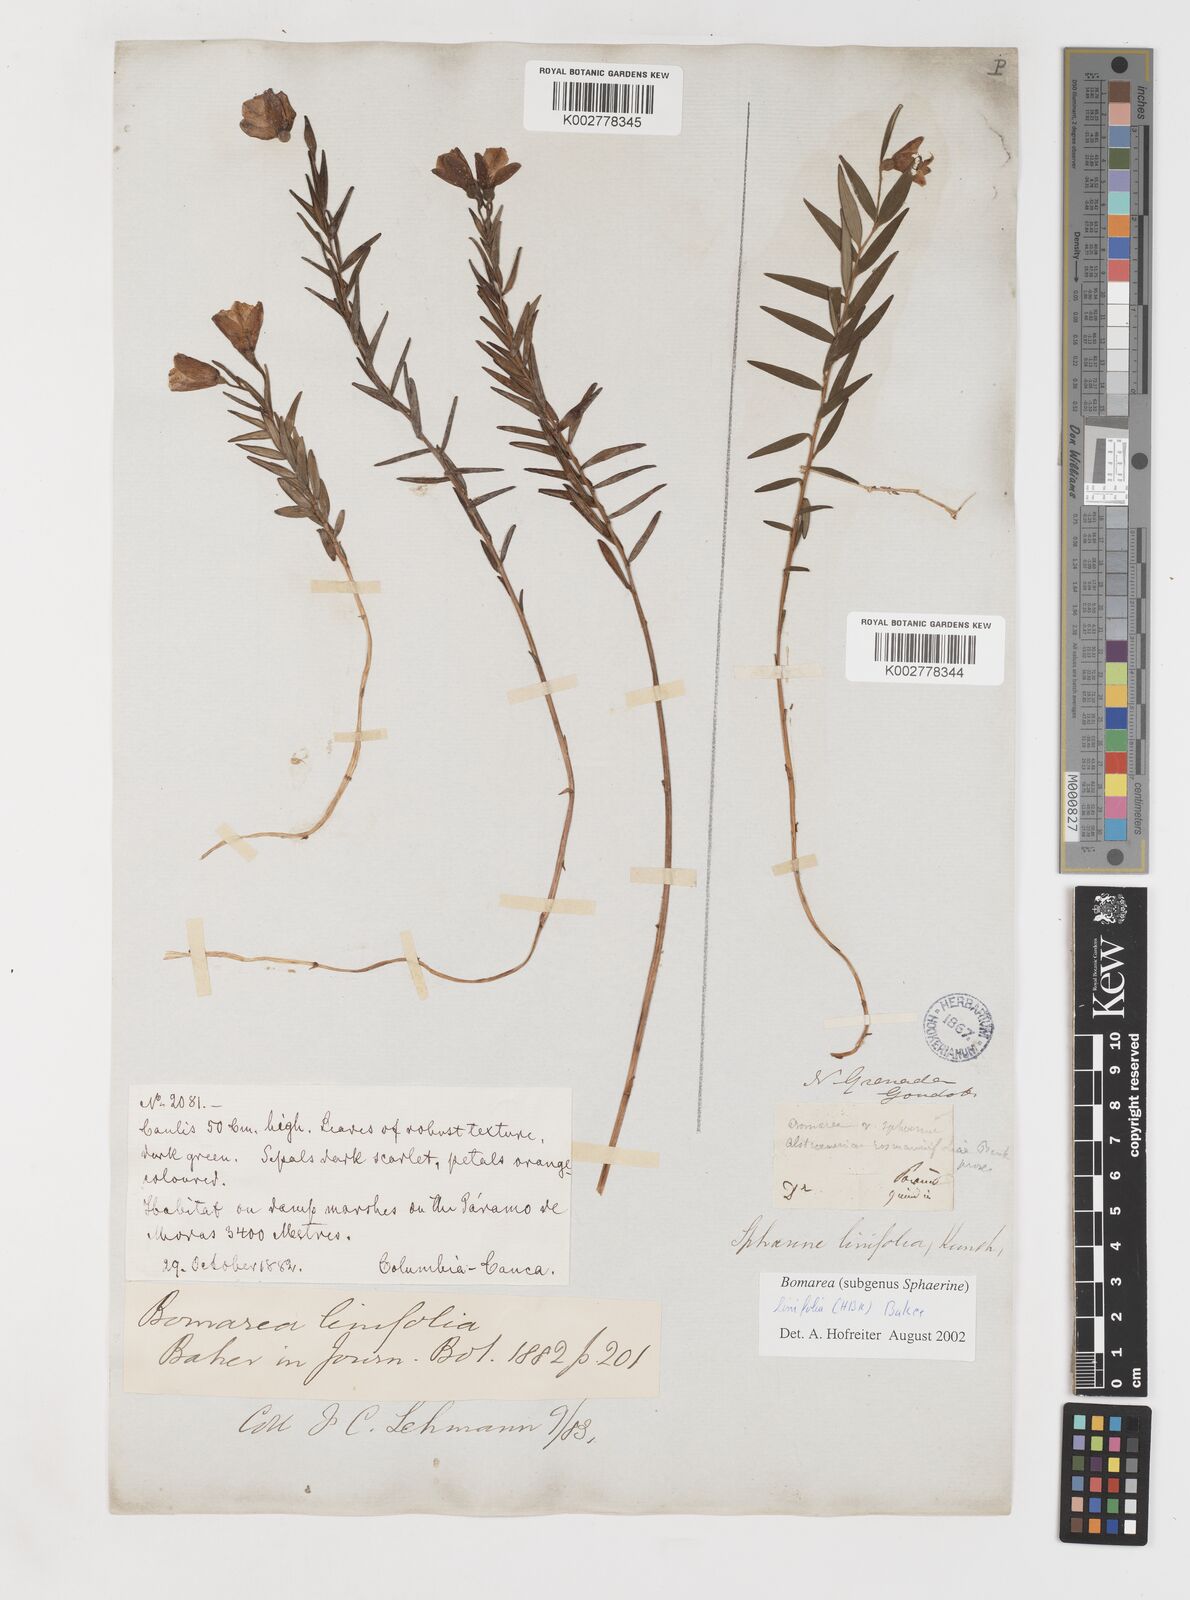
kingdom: Plantae
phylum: Tracheophyta
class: Liliopsida
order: Liliales
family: Alstroemeriaceae
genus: Bomarea
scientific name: Bomarea linifolia
